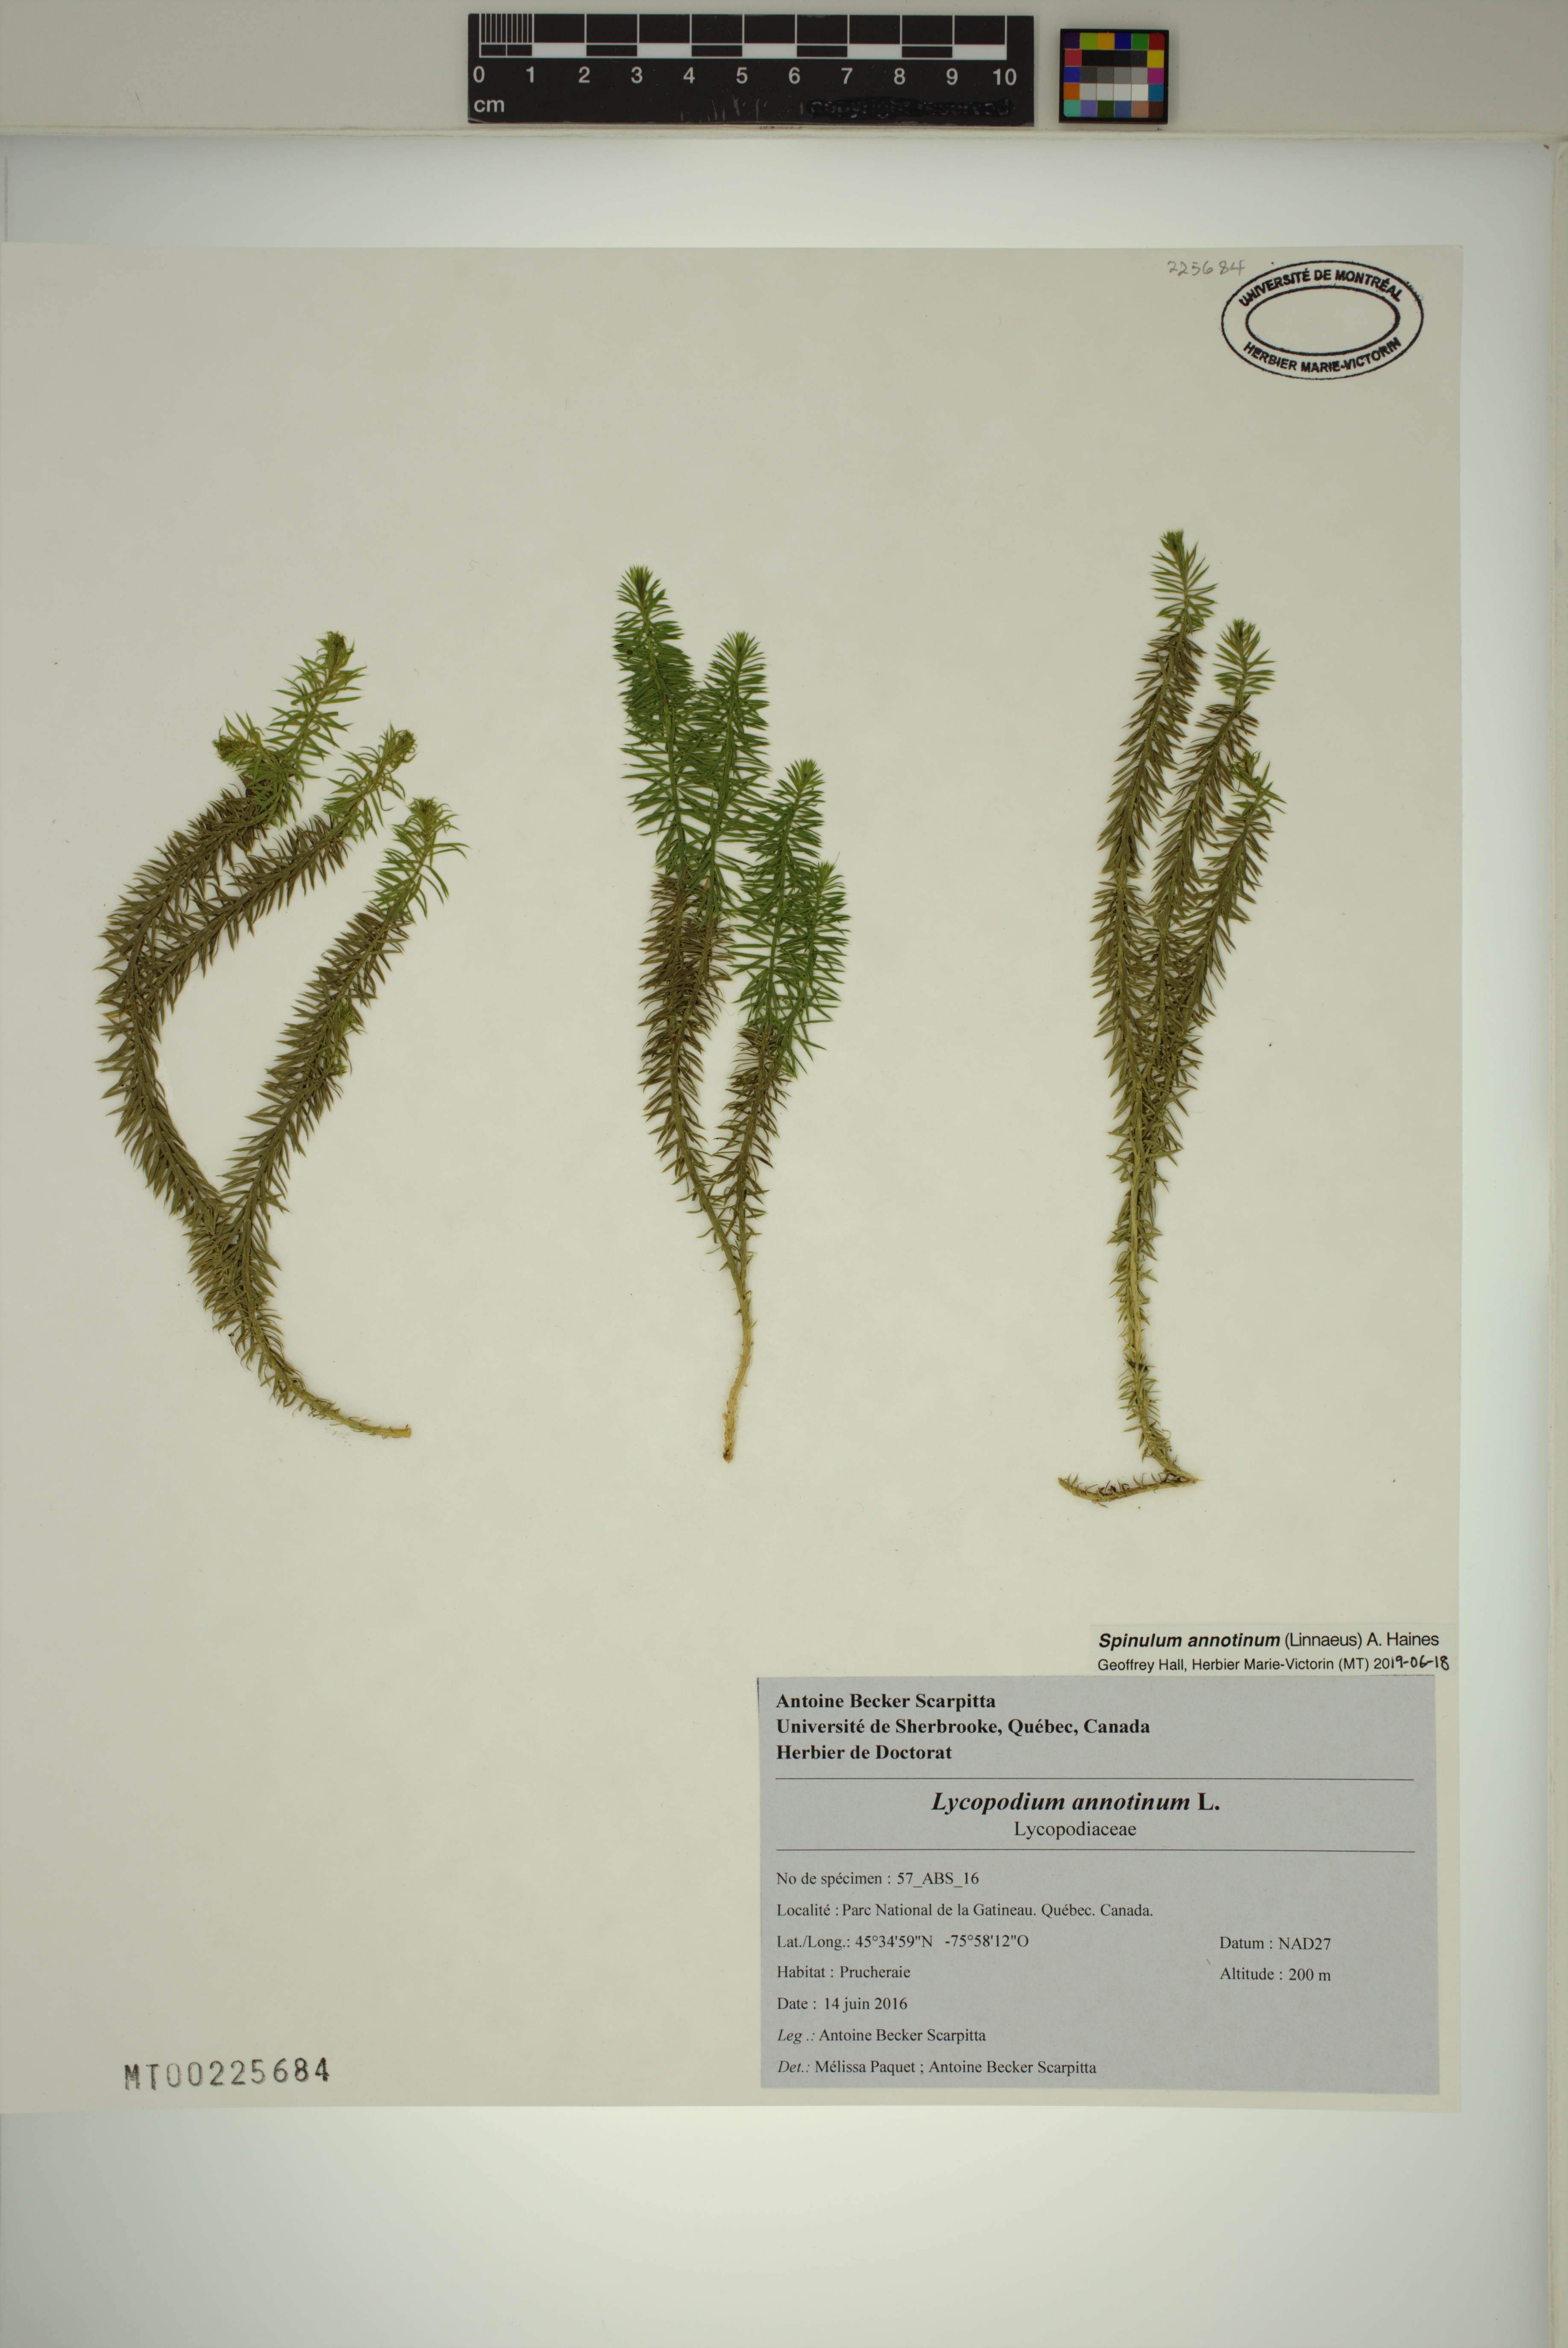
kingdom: Plantae
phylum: Tracheophyta
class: Lycopodiopsida
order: Lycopodiales
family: Lycopodiaceae
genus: Spinulum
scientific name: Spinulum annotinum
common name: Interrupted club-moss
